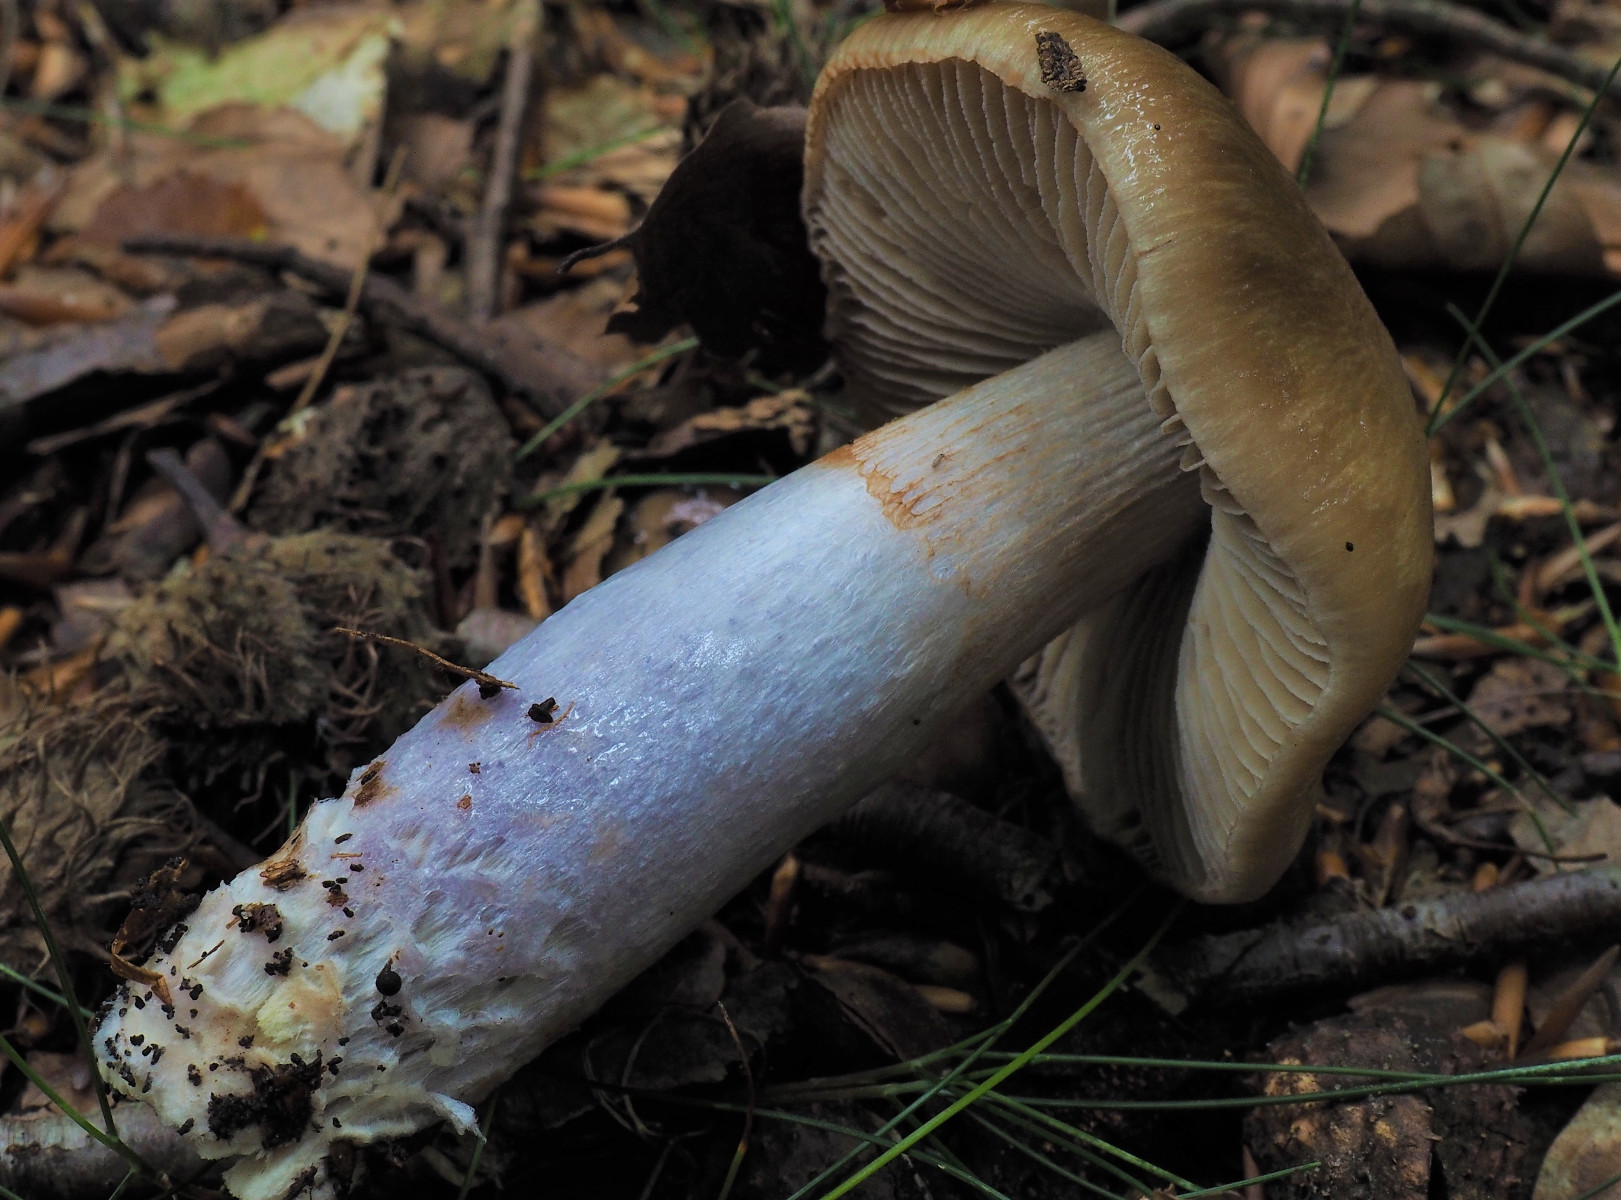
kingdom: Fungi
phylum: Basidiomycota
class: Agaricomycetes
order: Agaricales
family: Cortinariaceae
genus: Cortinarius
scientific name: Cortinarius elatior
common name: høj slørhat
